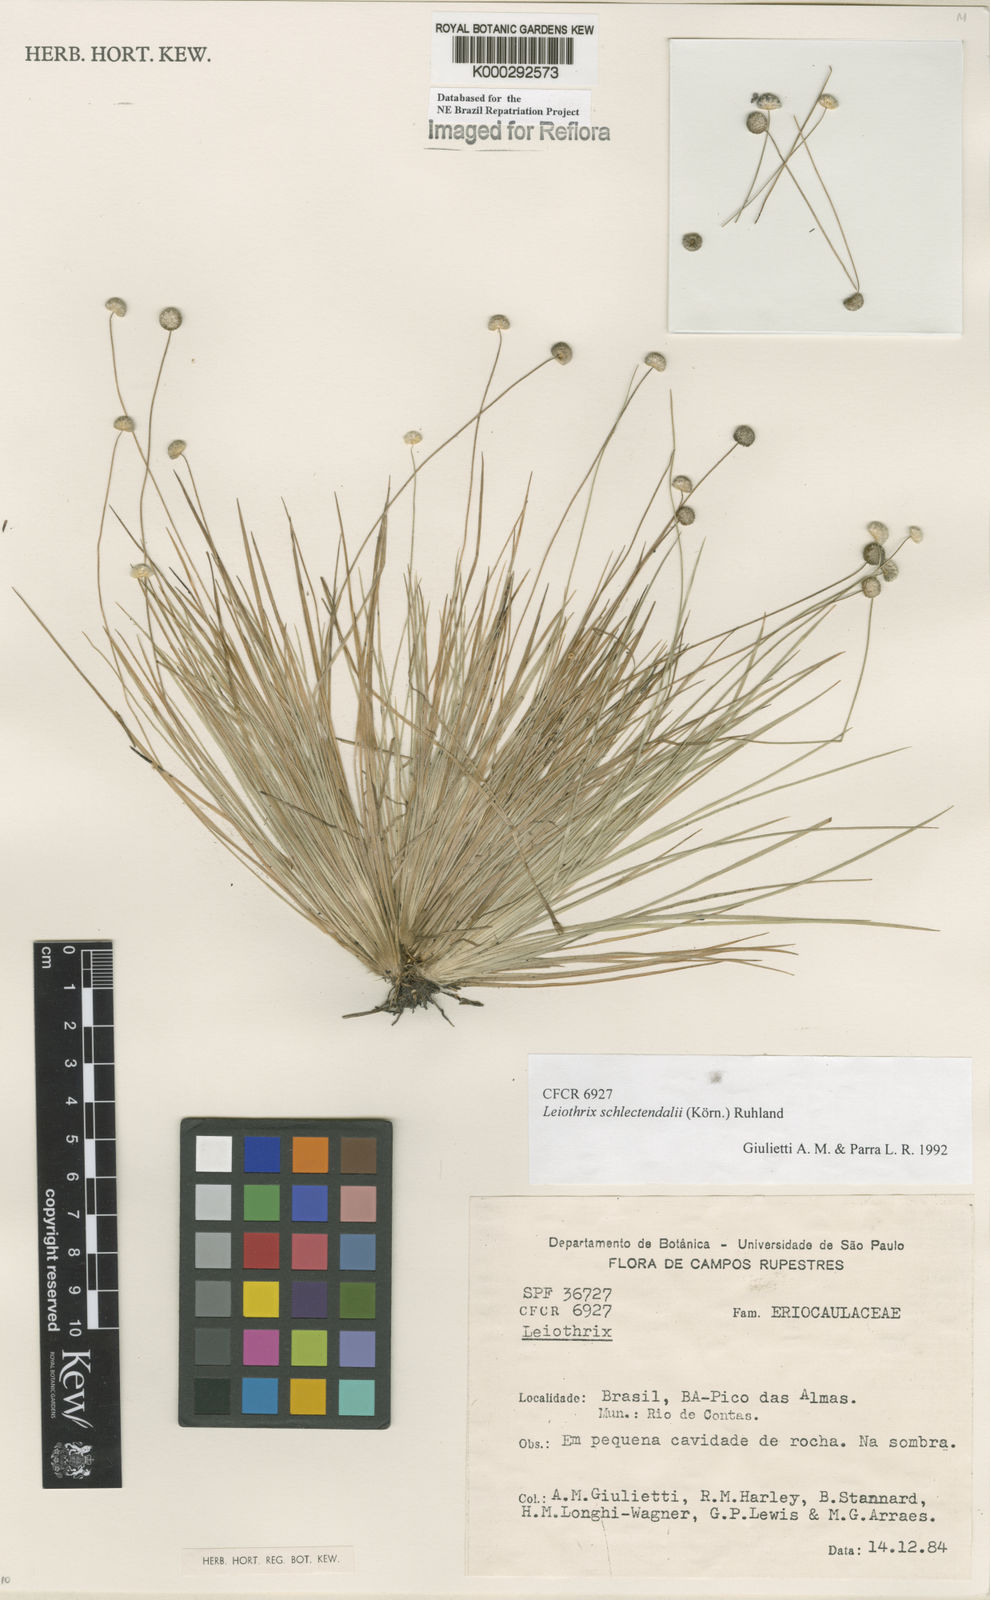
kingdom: Plantae
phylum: Tracheophyta
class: Liliopsida
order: Poales
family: Eriocaulaceae
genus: Leiothrix
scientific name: Leiothrix schlechtendalii
